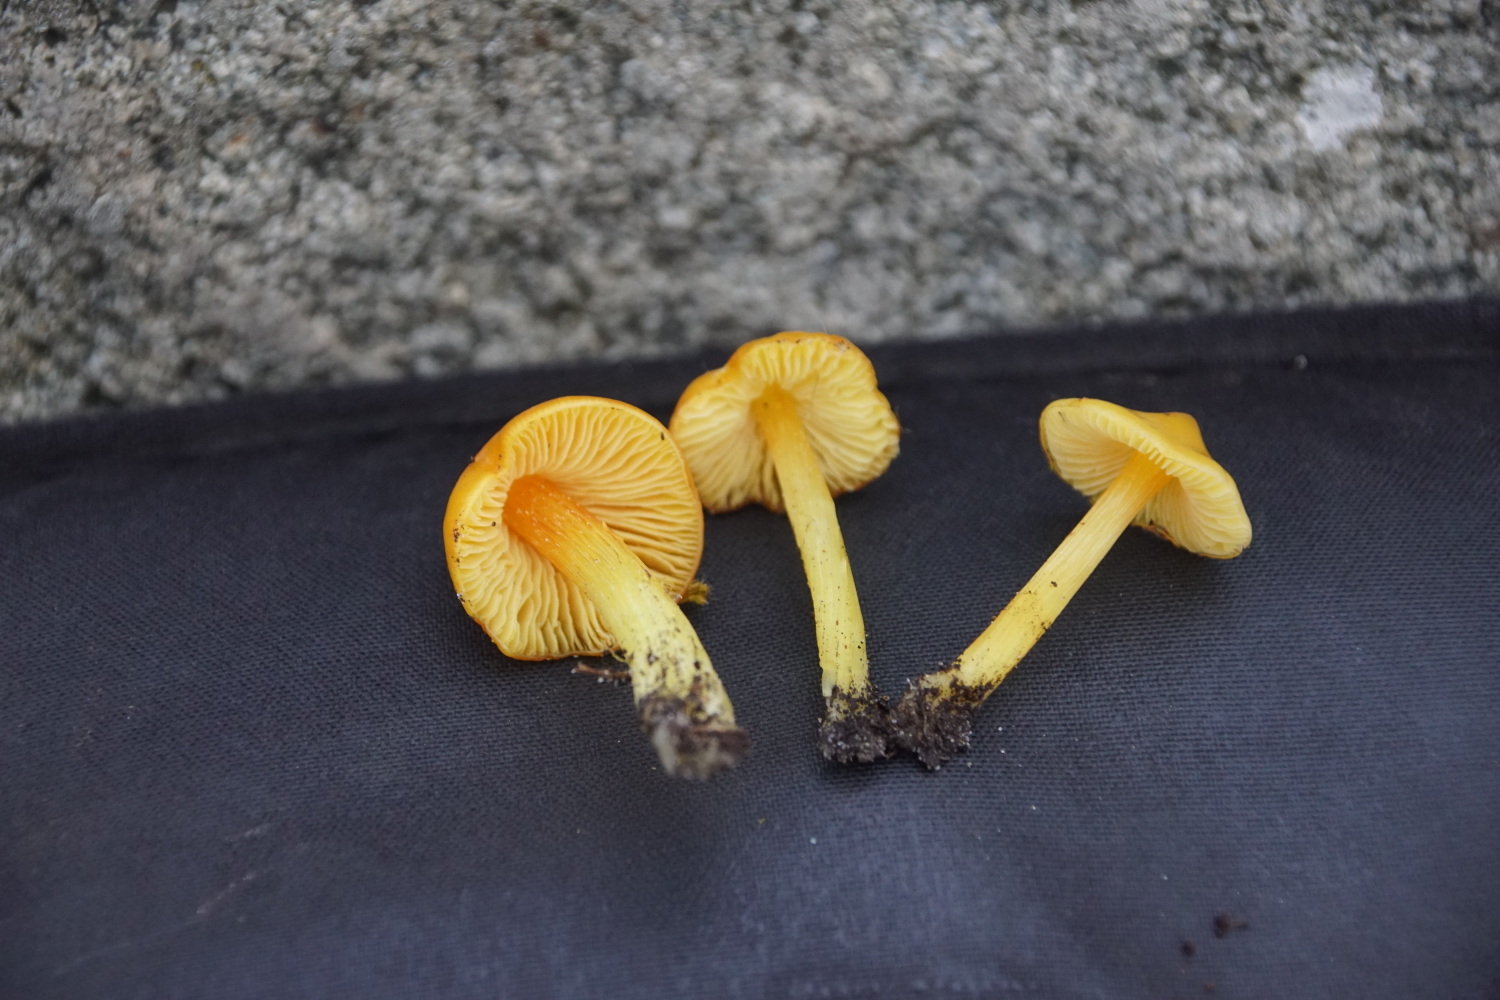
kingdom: Fungi
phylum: Basidiomycota
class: Agaricomycetes
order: Agaricales
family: Hygrophoraceae
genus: Hygrocybe
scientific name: Hygrocybe
